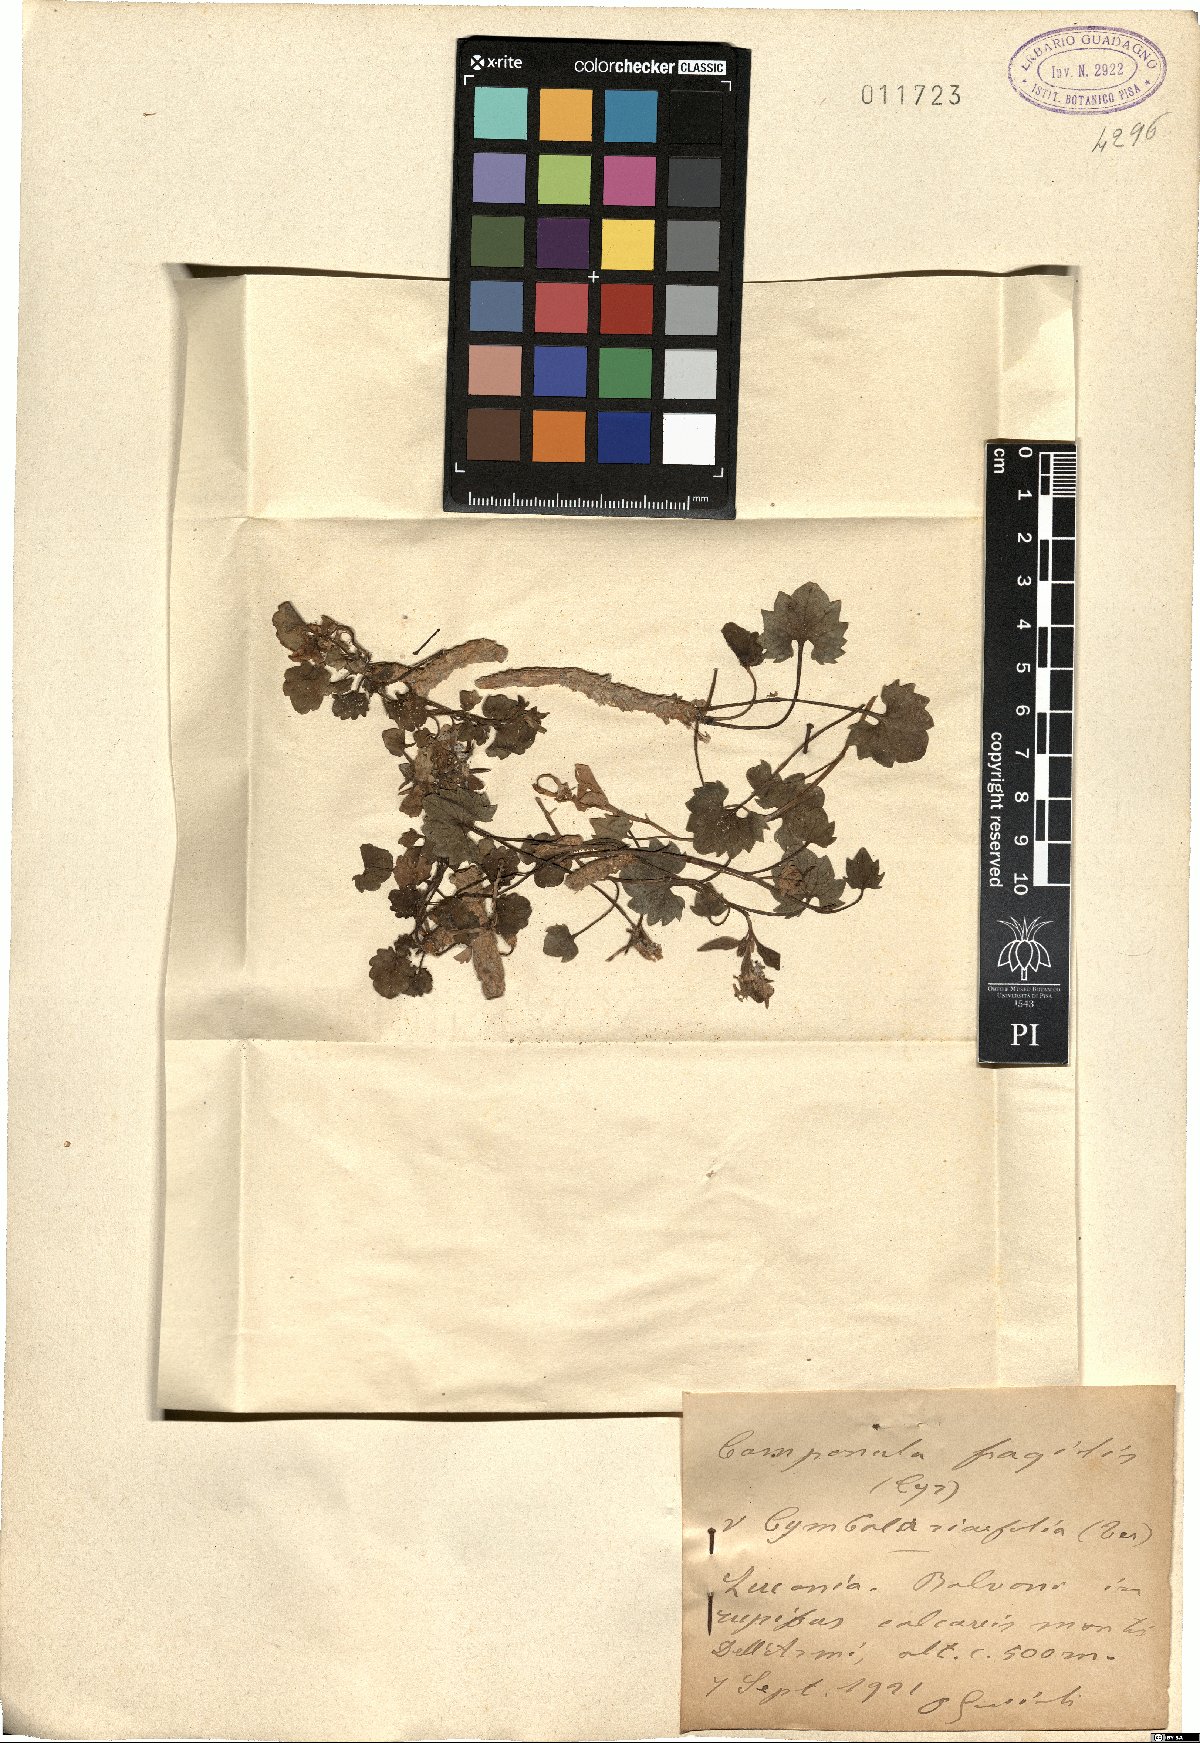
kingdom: Plantae
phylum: Tracheophyta
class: Magnoliopsida
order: Asterales
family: Campanulaceae
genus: Campanula
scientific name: Campanula fragilis
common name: Italian bellflower
